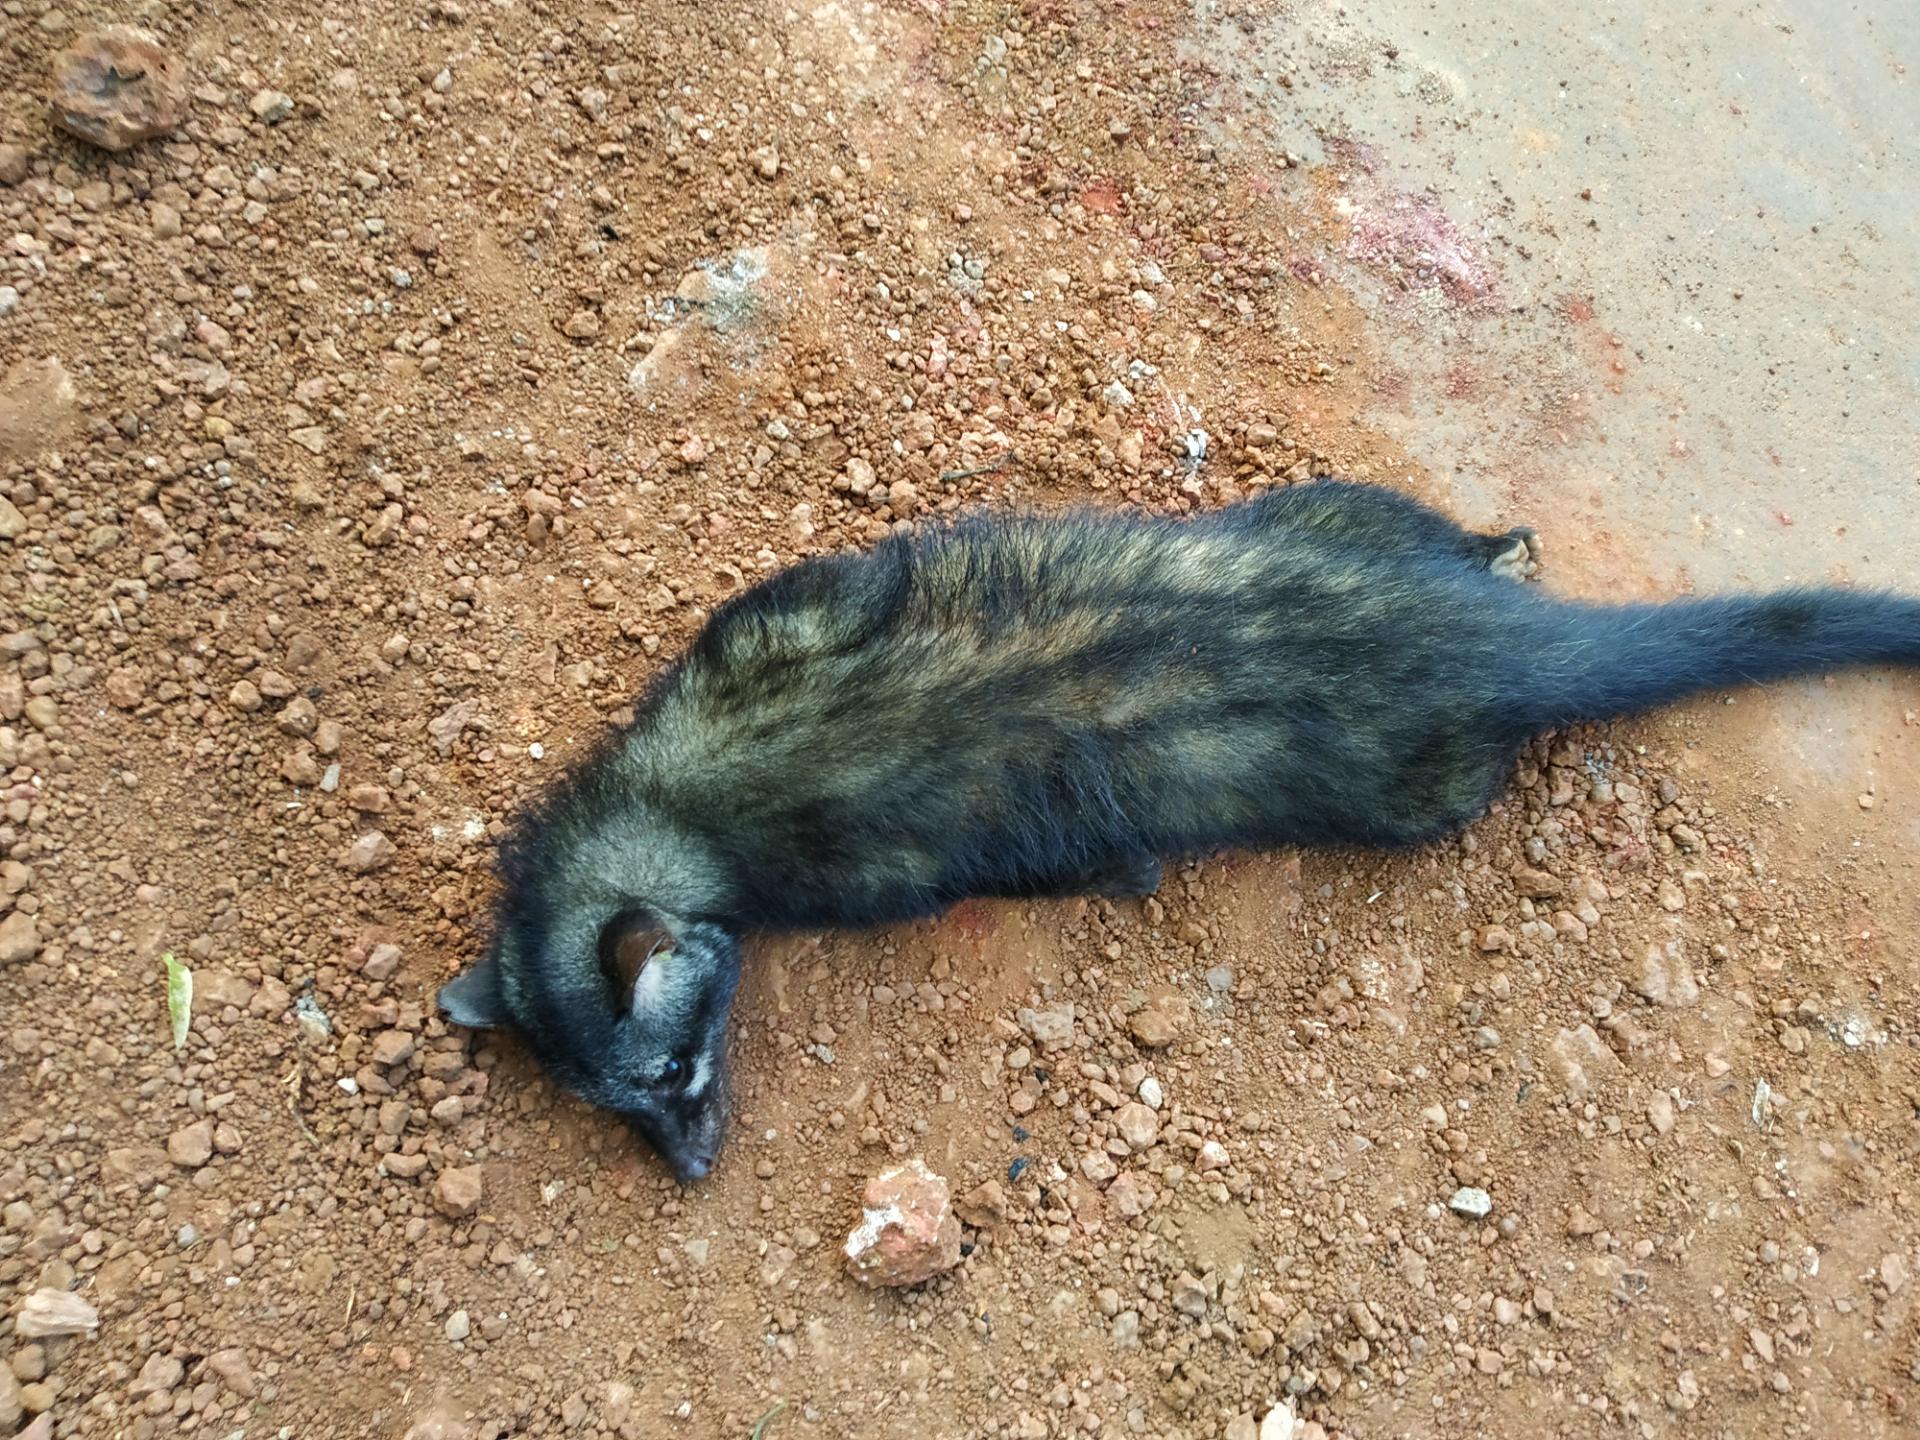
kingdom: Animalia
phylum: Chordata
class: Mammalia
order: Carnivora
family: Viverridae
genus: Paradoxurus
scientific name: Paradoxurus hermaphroditus
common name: Common palm civet
